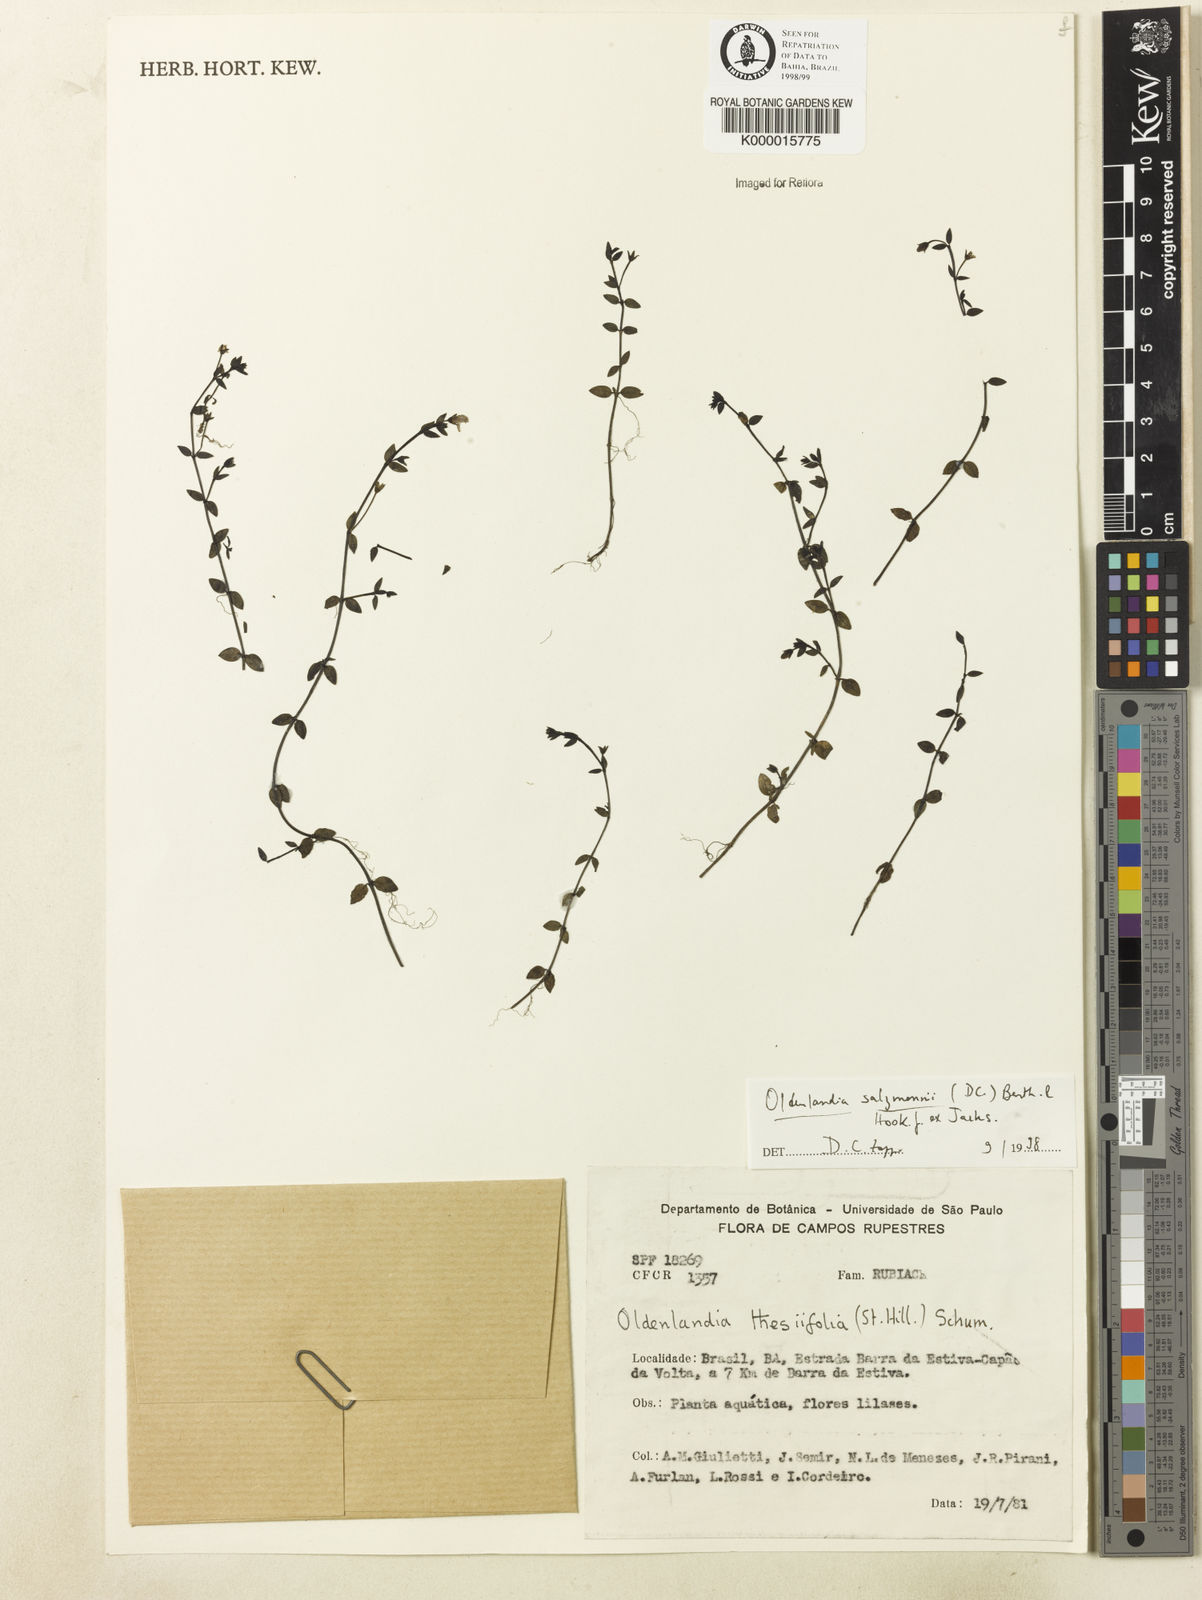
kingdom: Plantae
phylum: Tracheophyta
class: Magnoliopsida
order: Gentianales
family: Rubiaceae
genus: Oldenlandia
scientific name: Oldenlandia salzmannii
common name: Salzmann's mille graines
